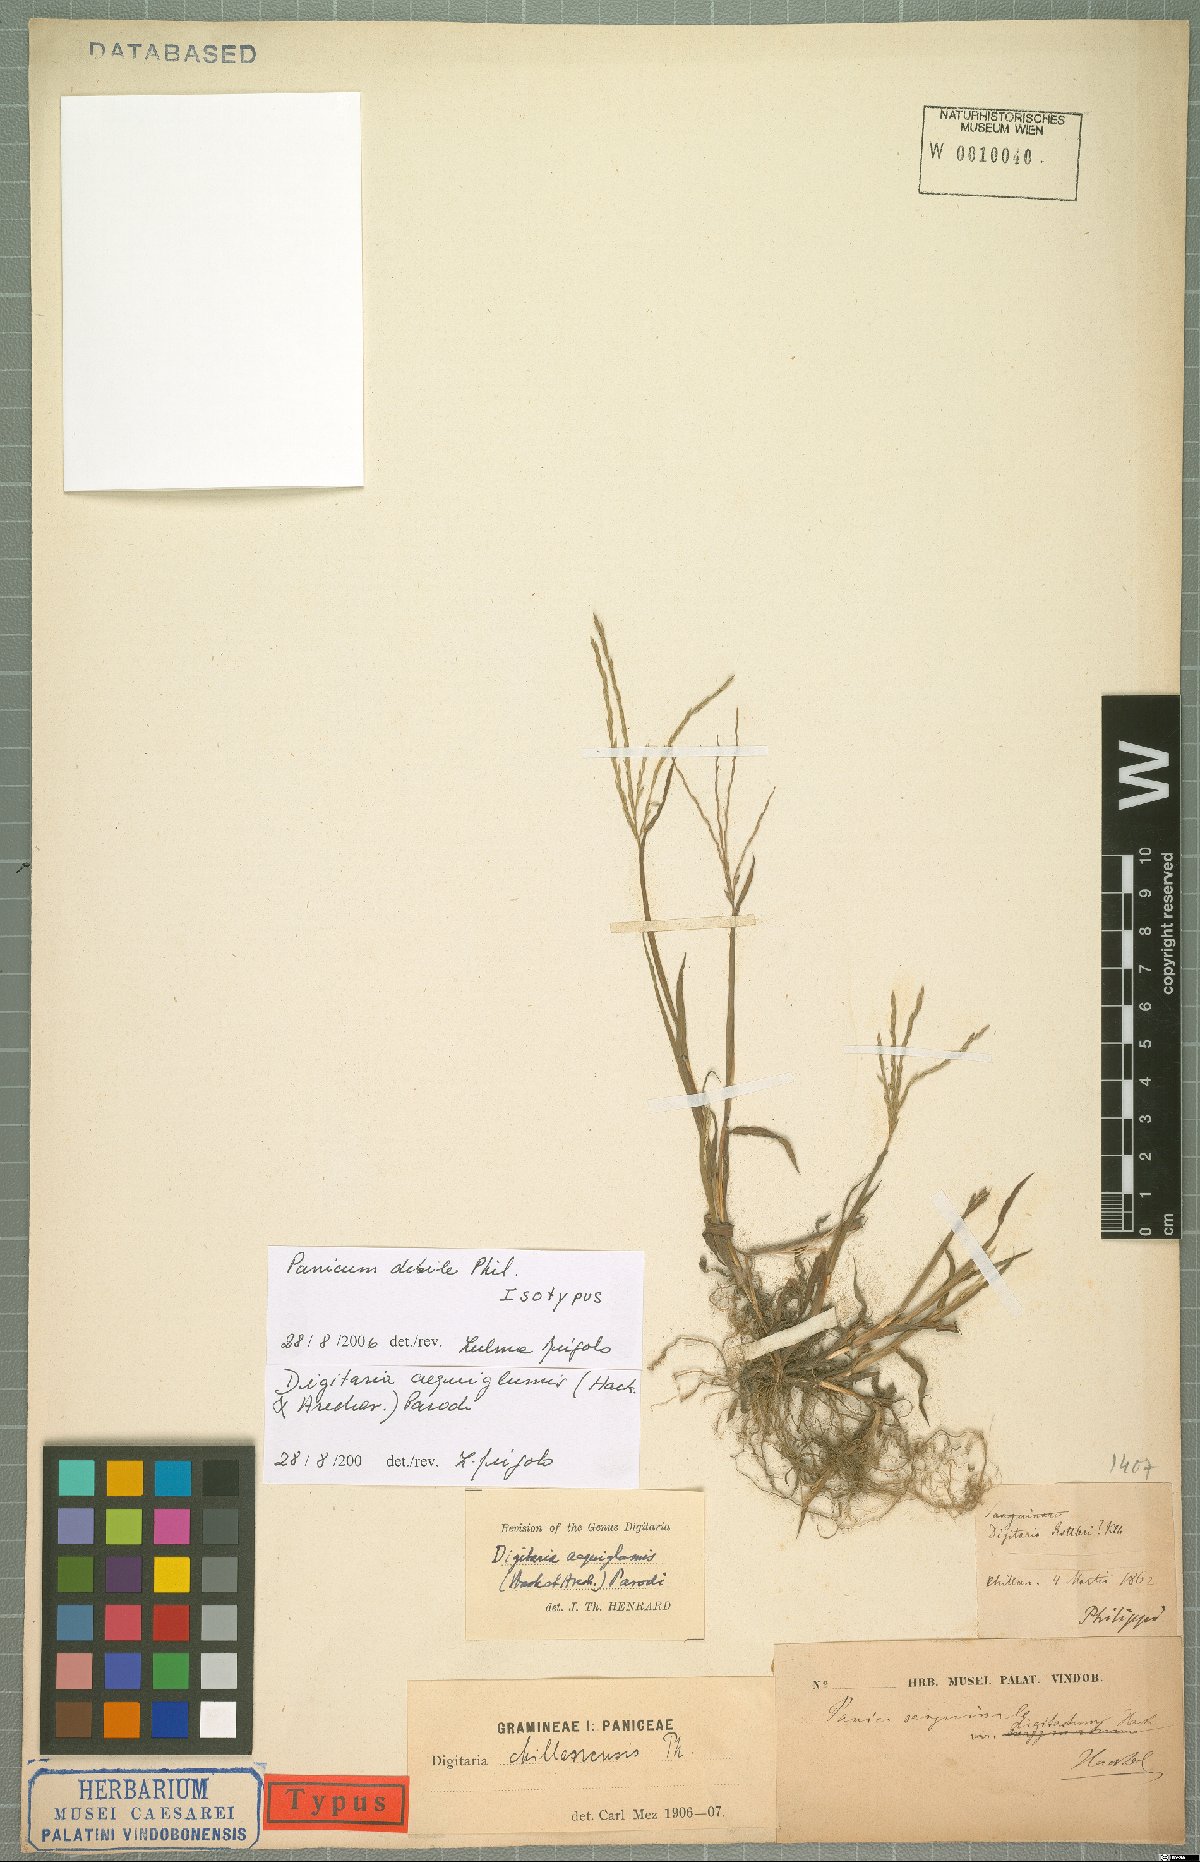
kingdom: Plantae
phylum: Tracheophyta
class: Liliopsida
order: Poales
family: Poaceae
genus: Digitaria
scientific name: Digitaria aequiglumis
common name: Argentinian crabgrass
